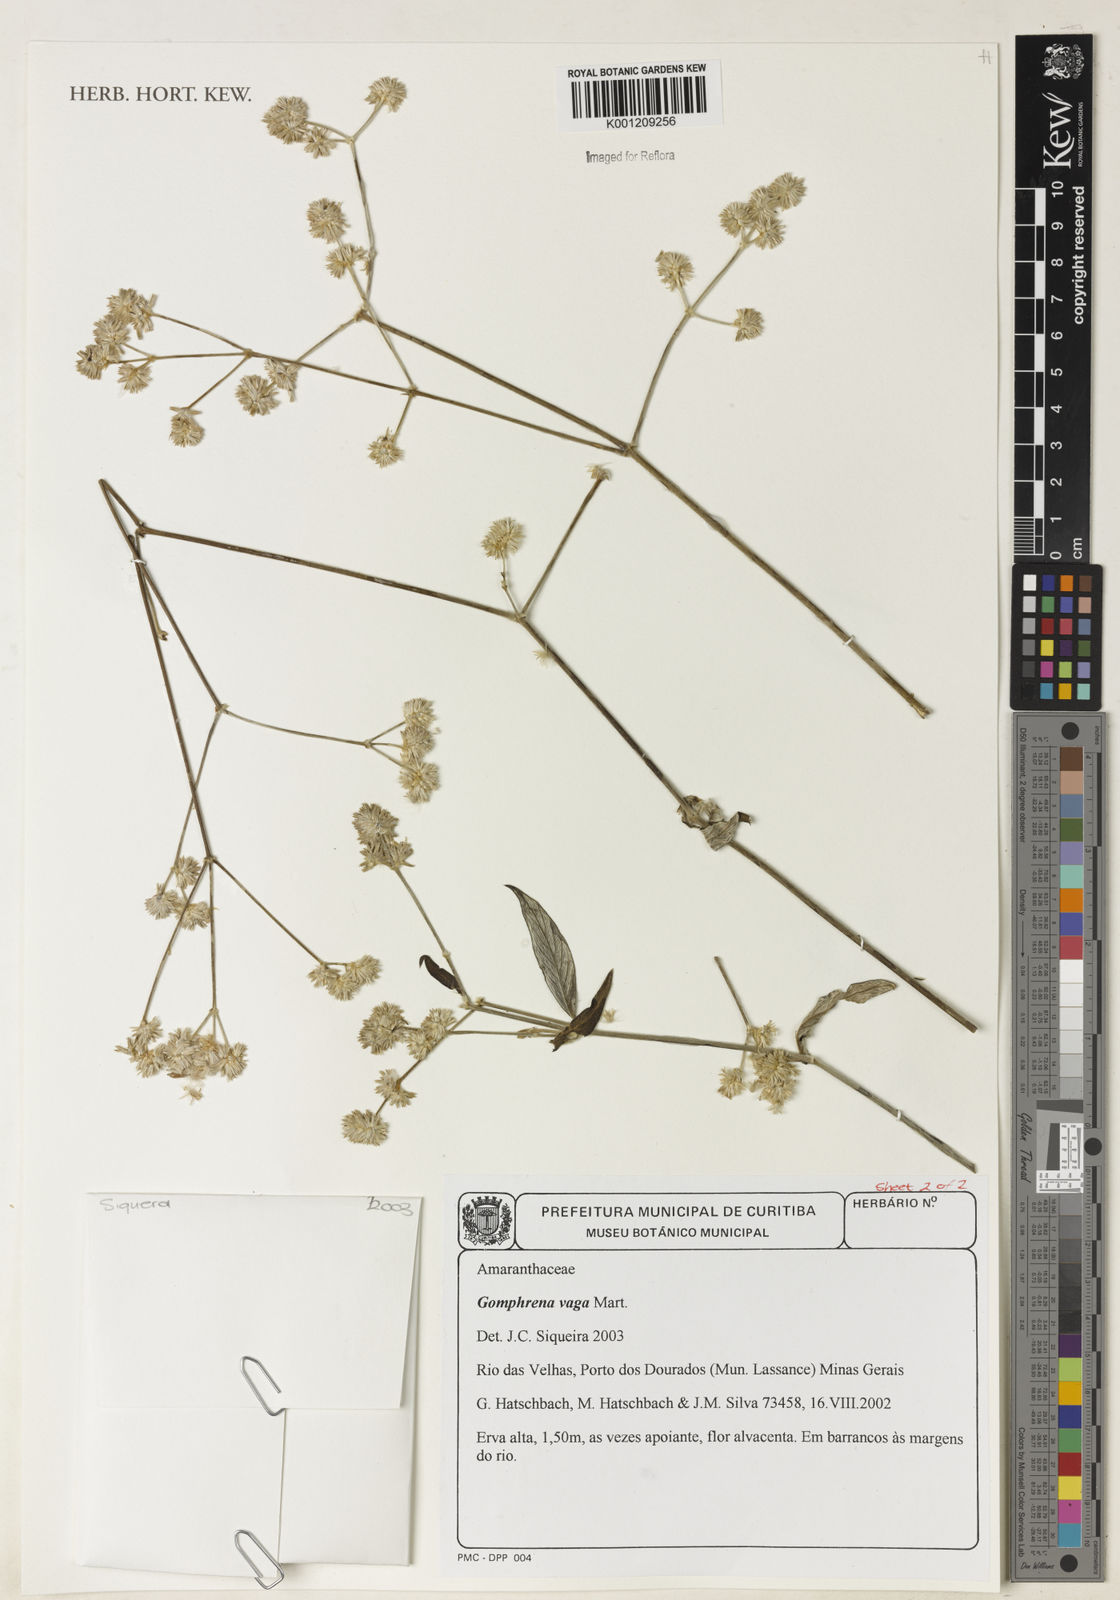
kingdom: Plantae
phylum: Tracheophyta
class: Magnoliopsida
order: Caryophyllales
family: Amaranthaceae
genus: Gomphrena
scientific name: Gomphrena vaga
